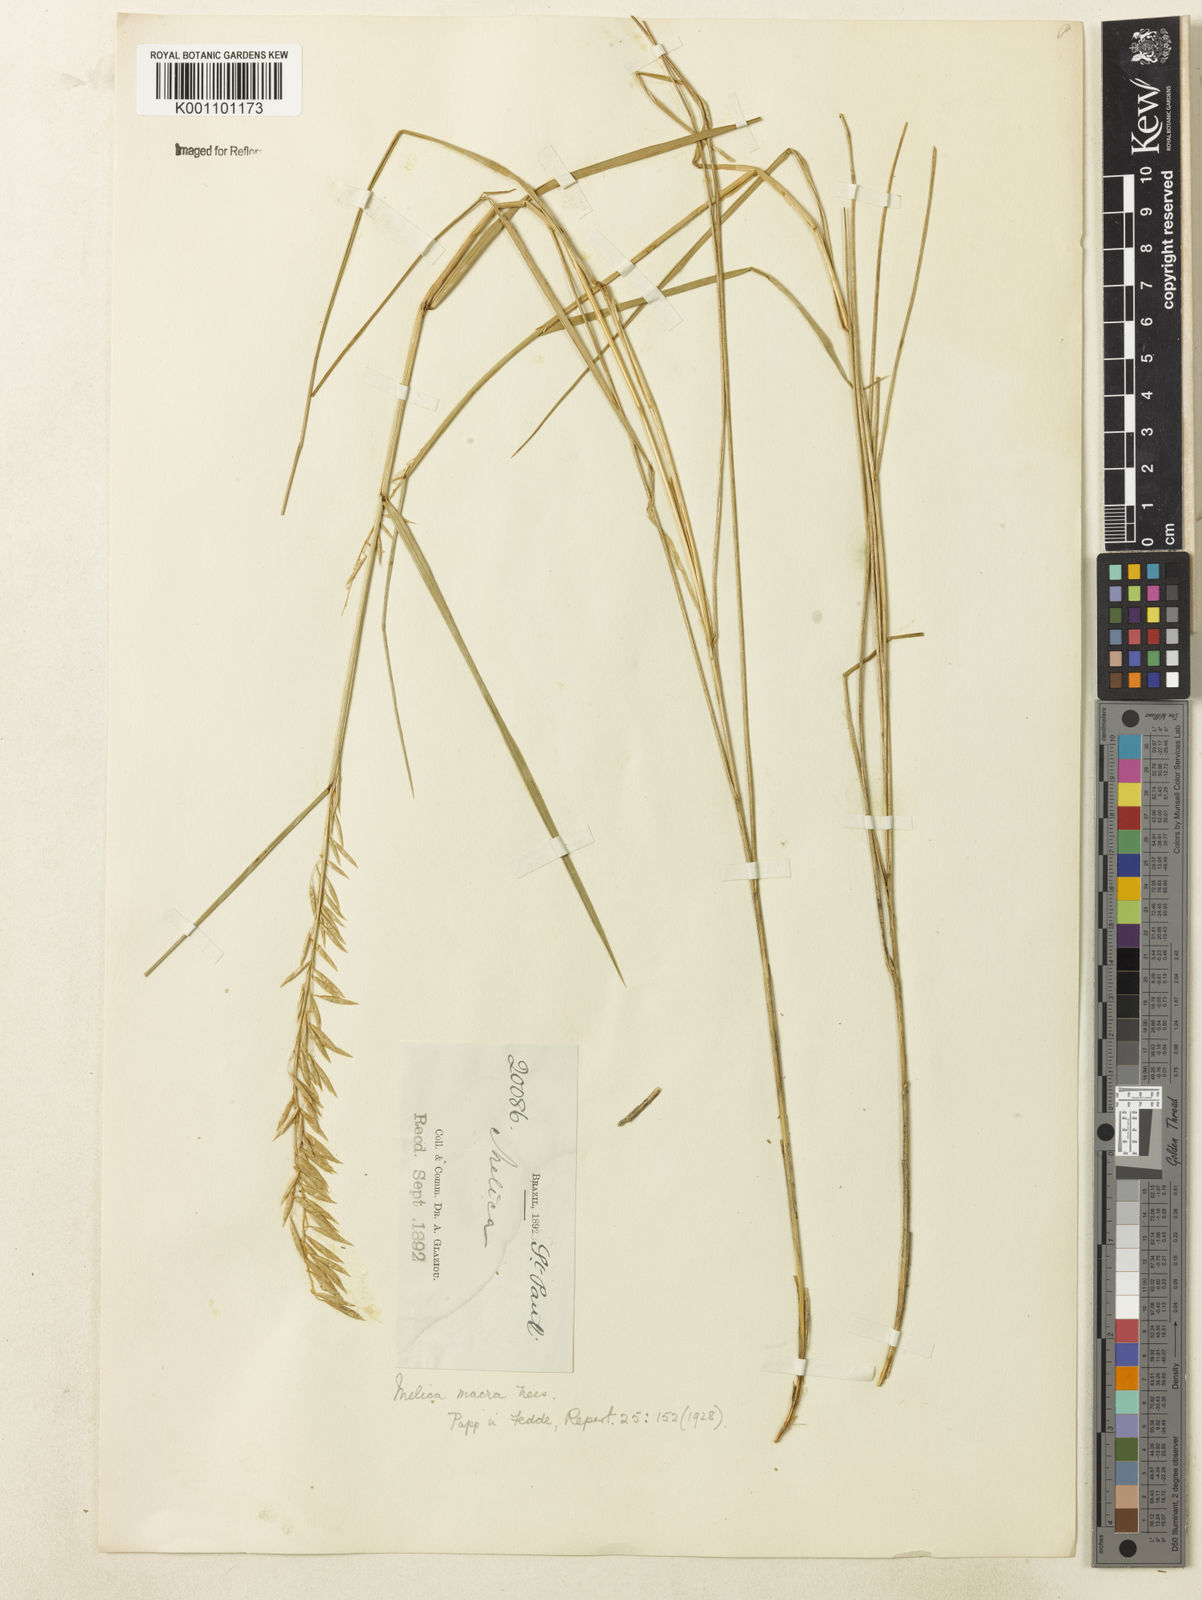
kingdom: Plantae
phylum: Tracheophyta
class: Liliopsida
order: Poales
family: Poaceae
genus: Melica
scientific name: Melica macra
